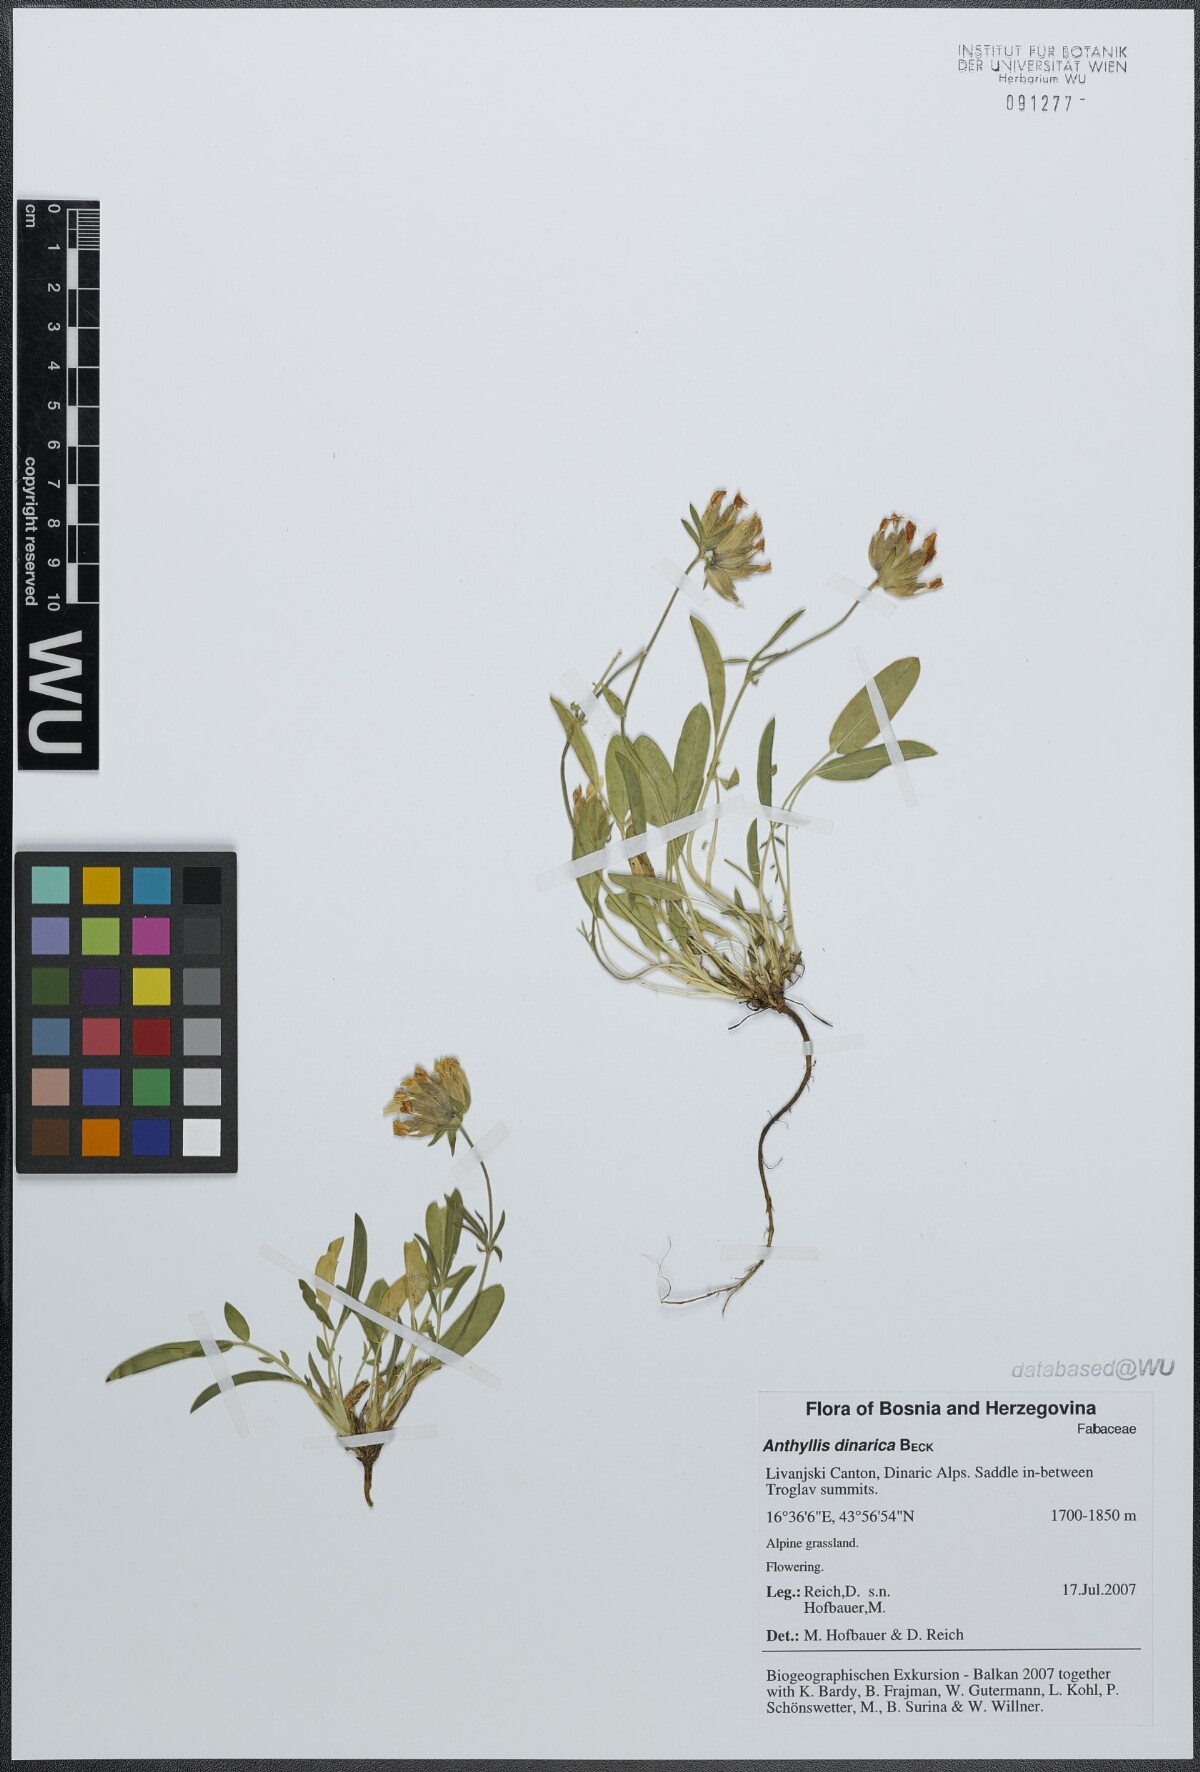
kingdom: Plantae
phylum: Tracheophyta
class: Magnoliopsida
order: Fabales
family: Fabaceae
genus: Anthyllis
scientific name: Anthyllis dinarica
